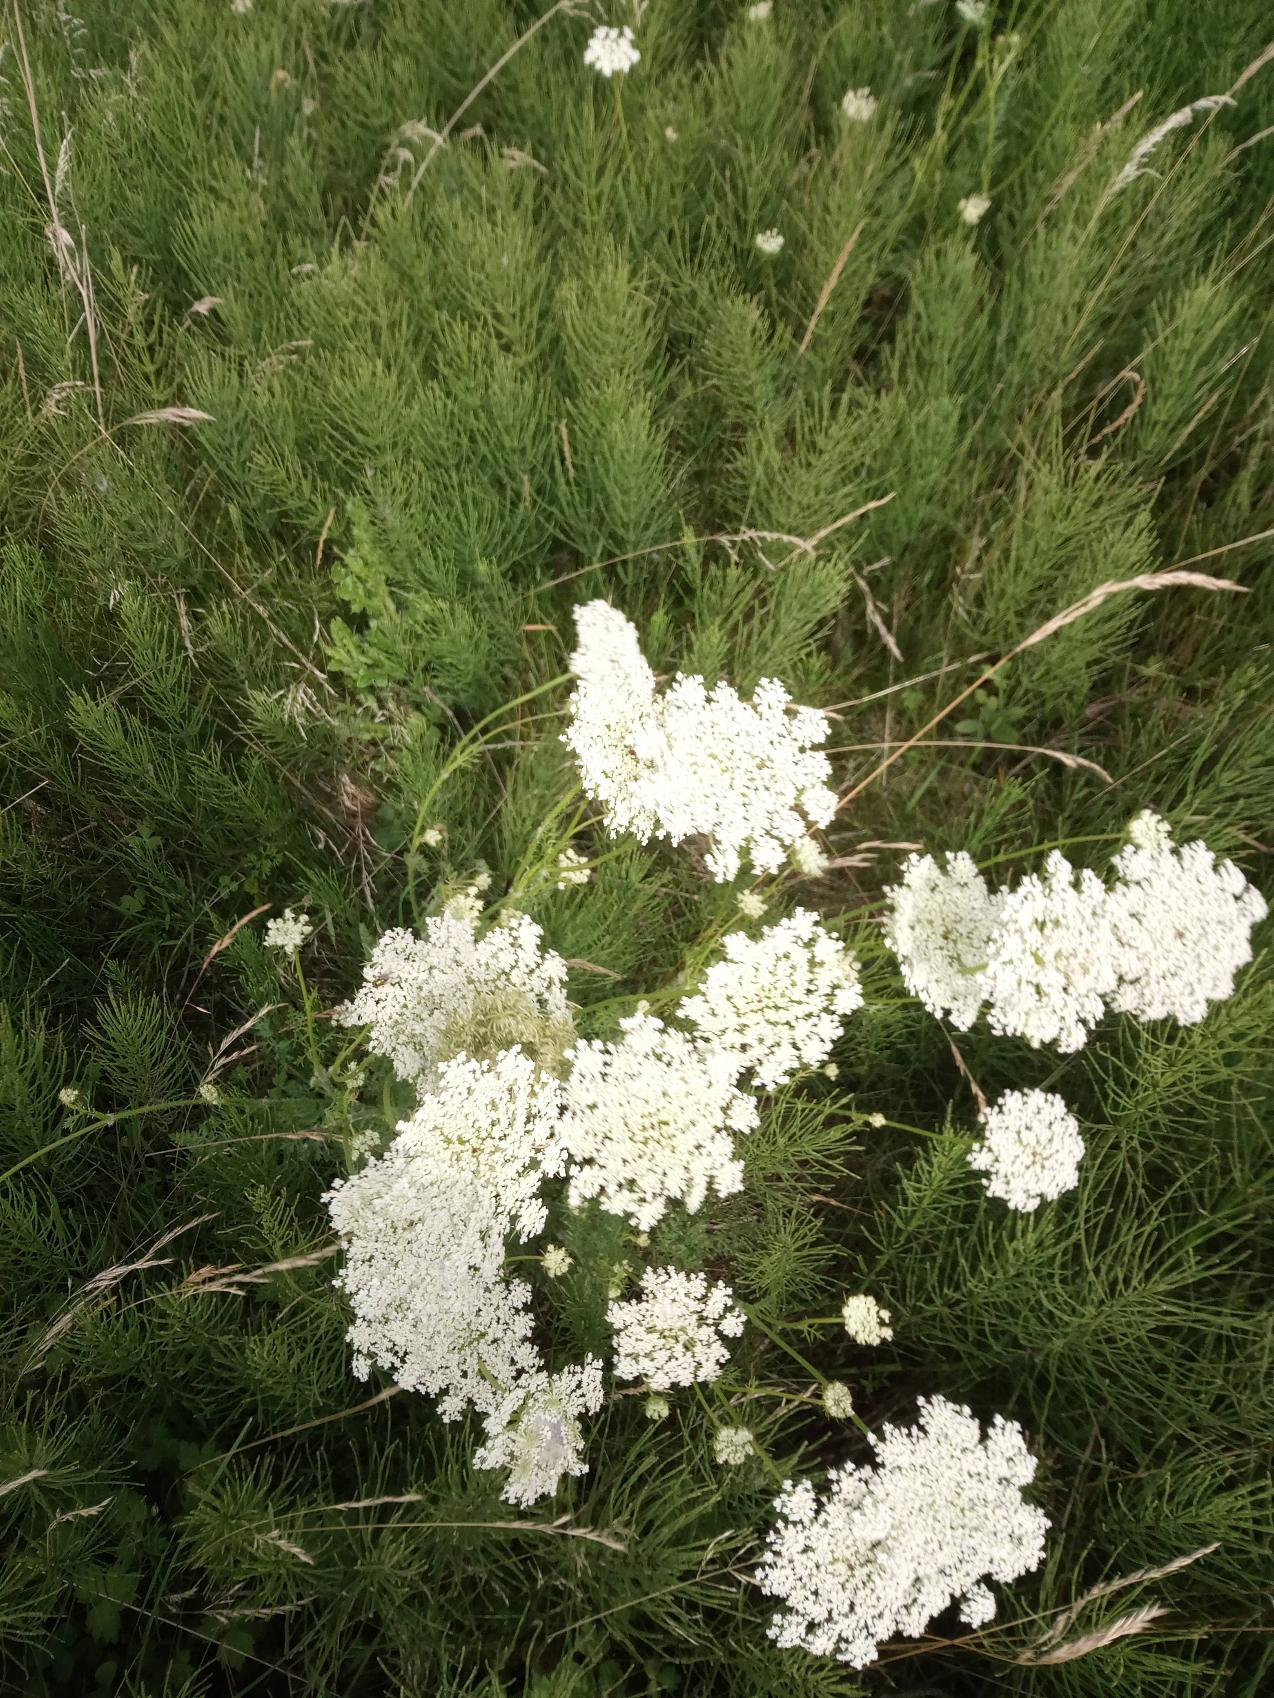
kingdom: Plantae
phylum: Tracheophyta
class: Magnoliopsida
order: Apiales
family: Apiaceae
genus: Daucus
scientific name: Daucus carota
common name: Gulerod
